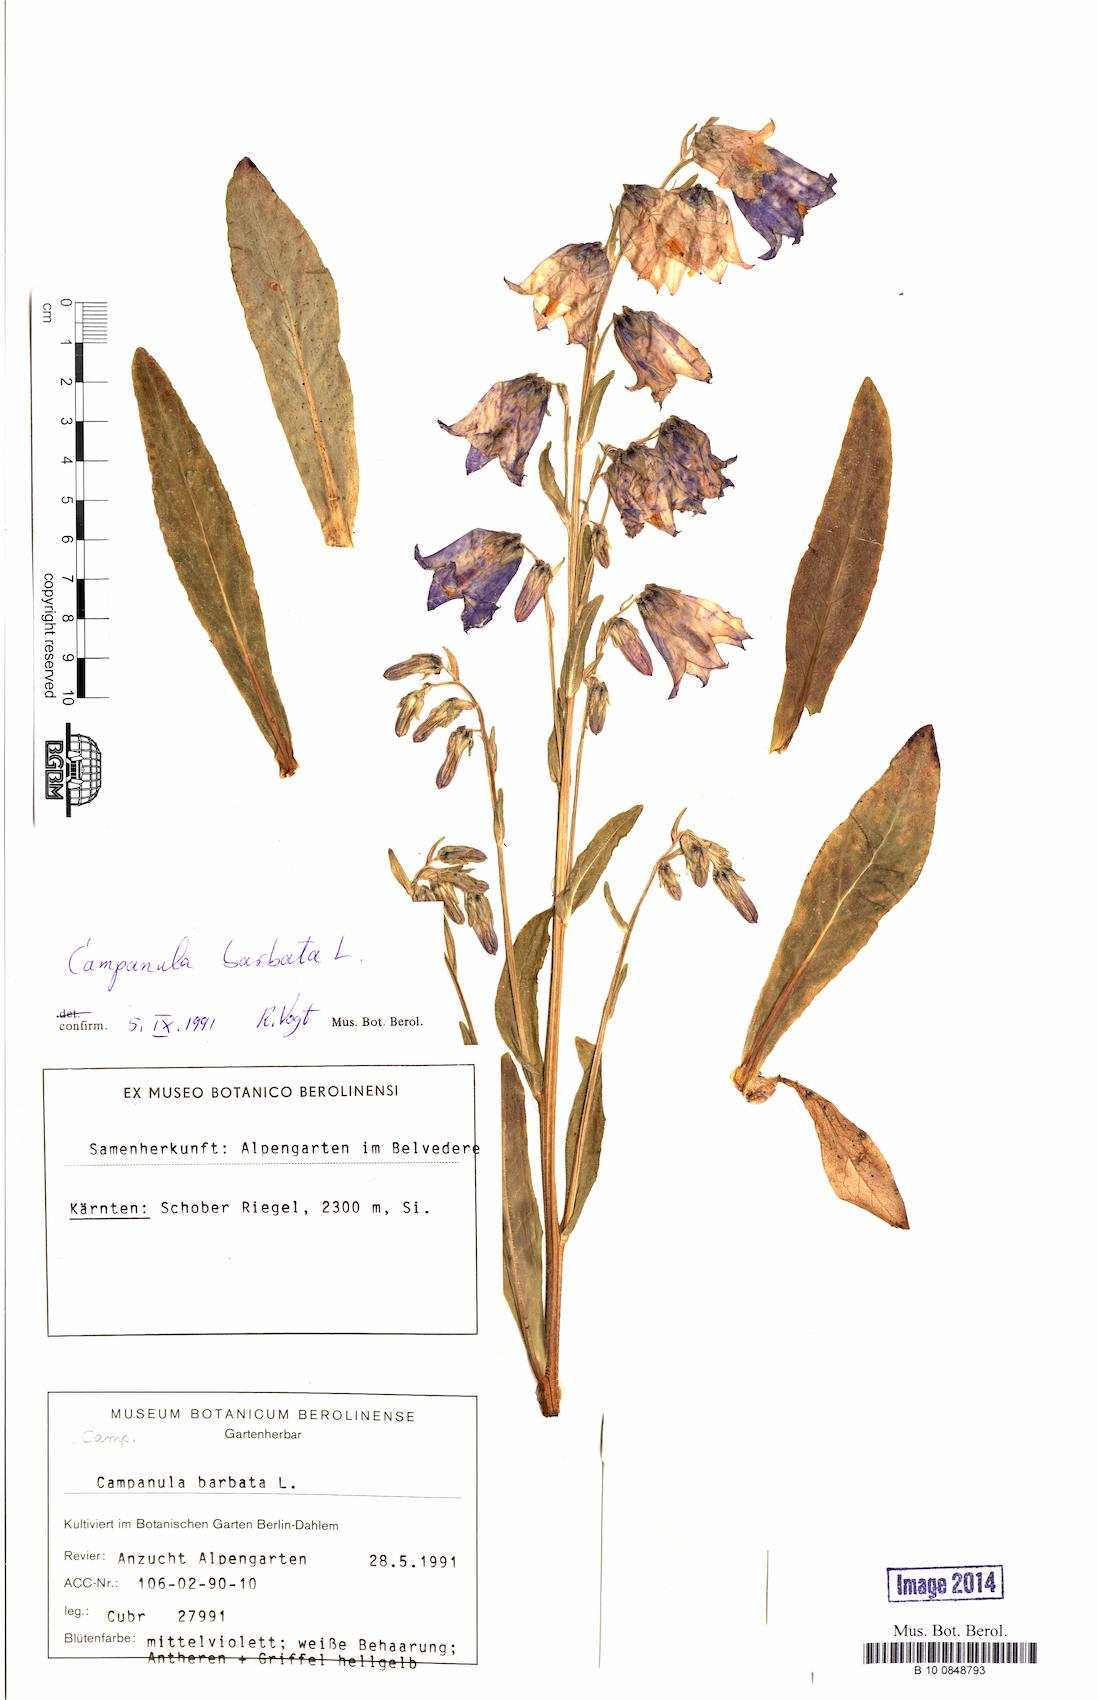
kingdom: Plantae
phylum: Tracheophyta
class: Magnoliopsida
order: Asterales
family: Campanulaceae
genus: Campanula
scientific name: Campanula barbata
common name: Bearded bellflower
